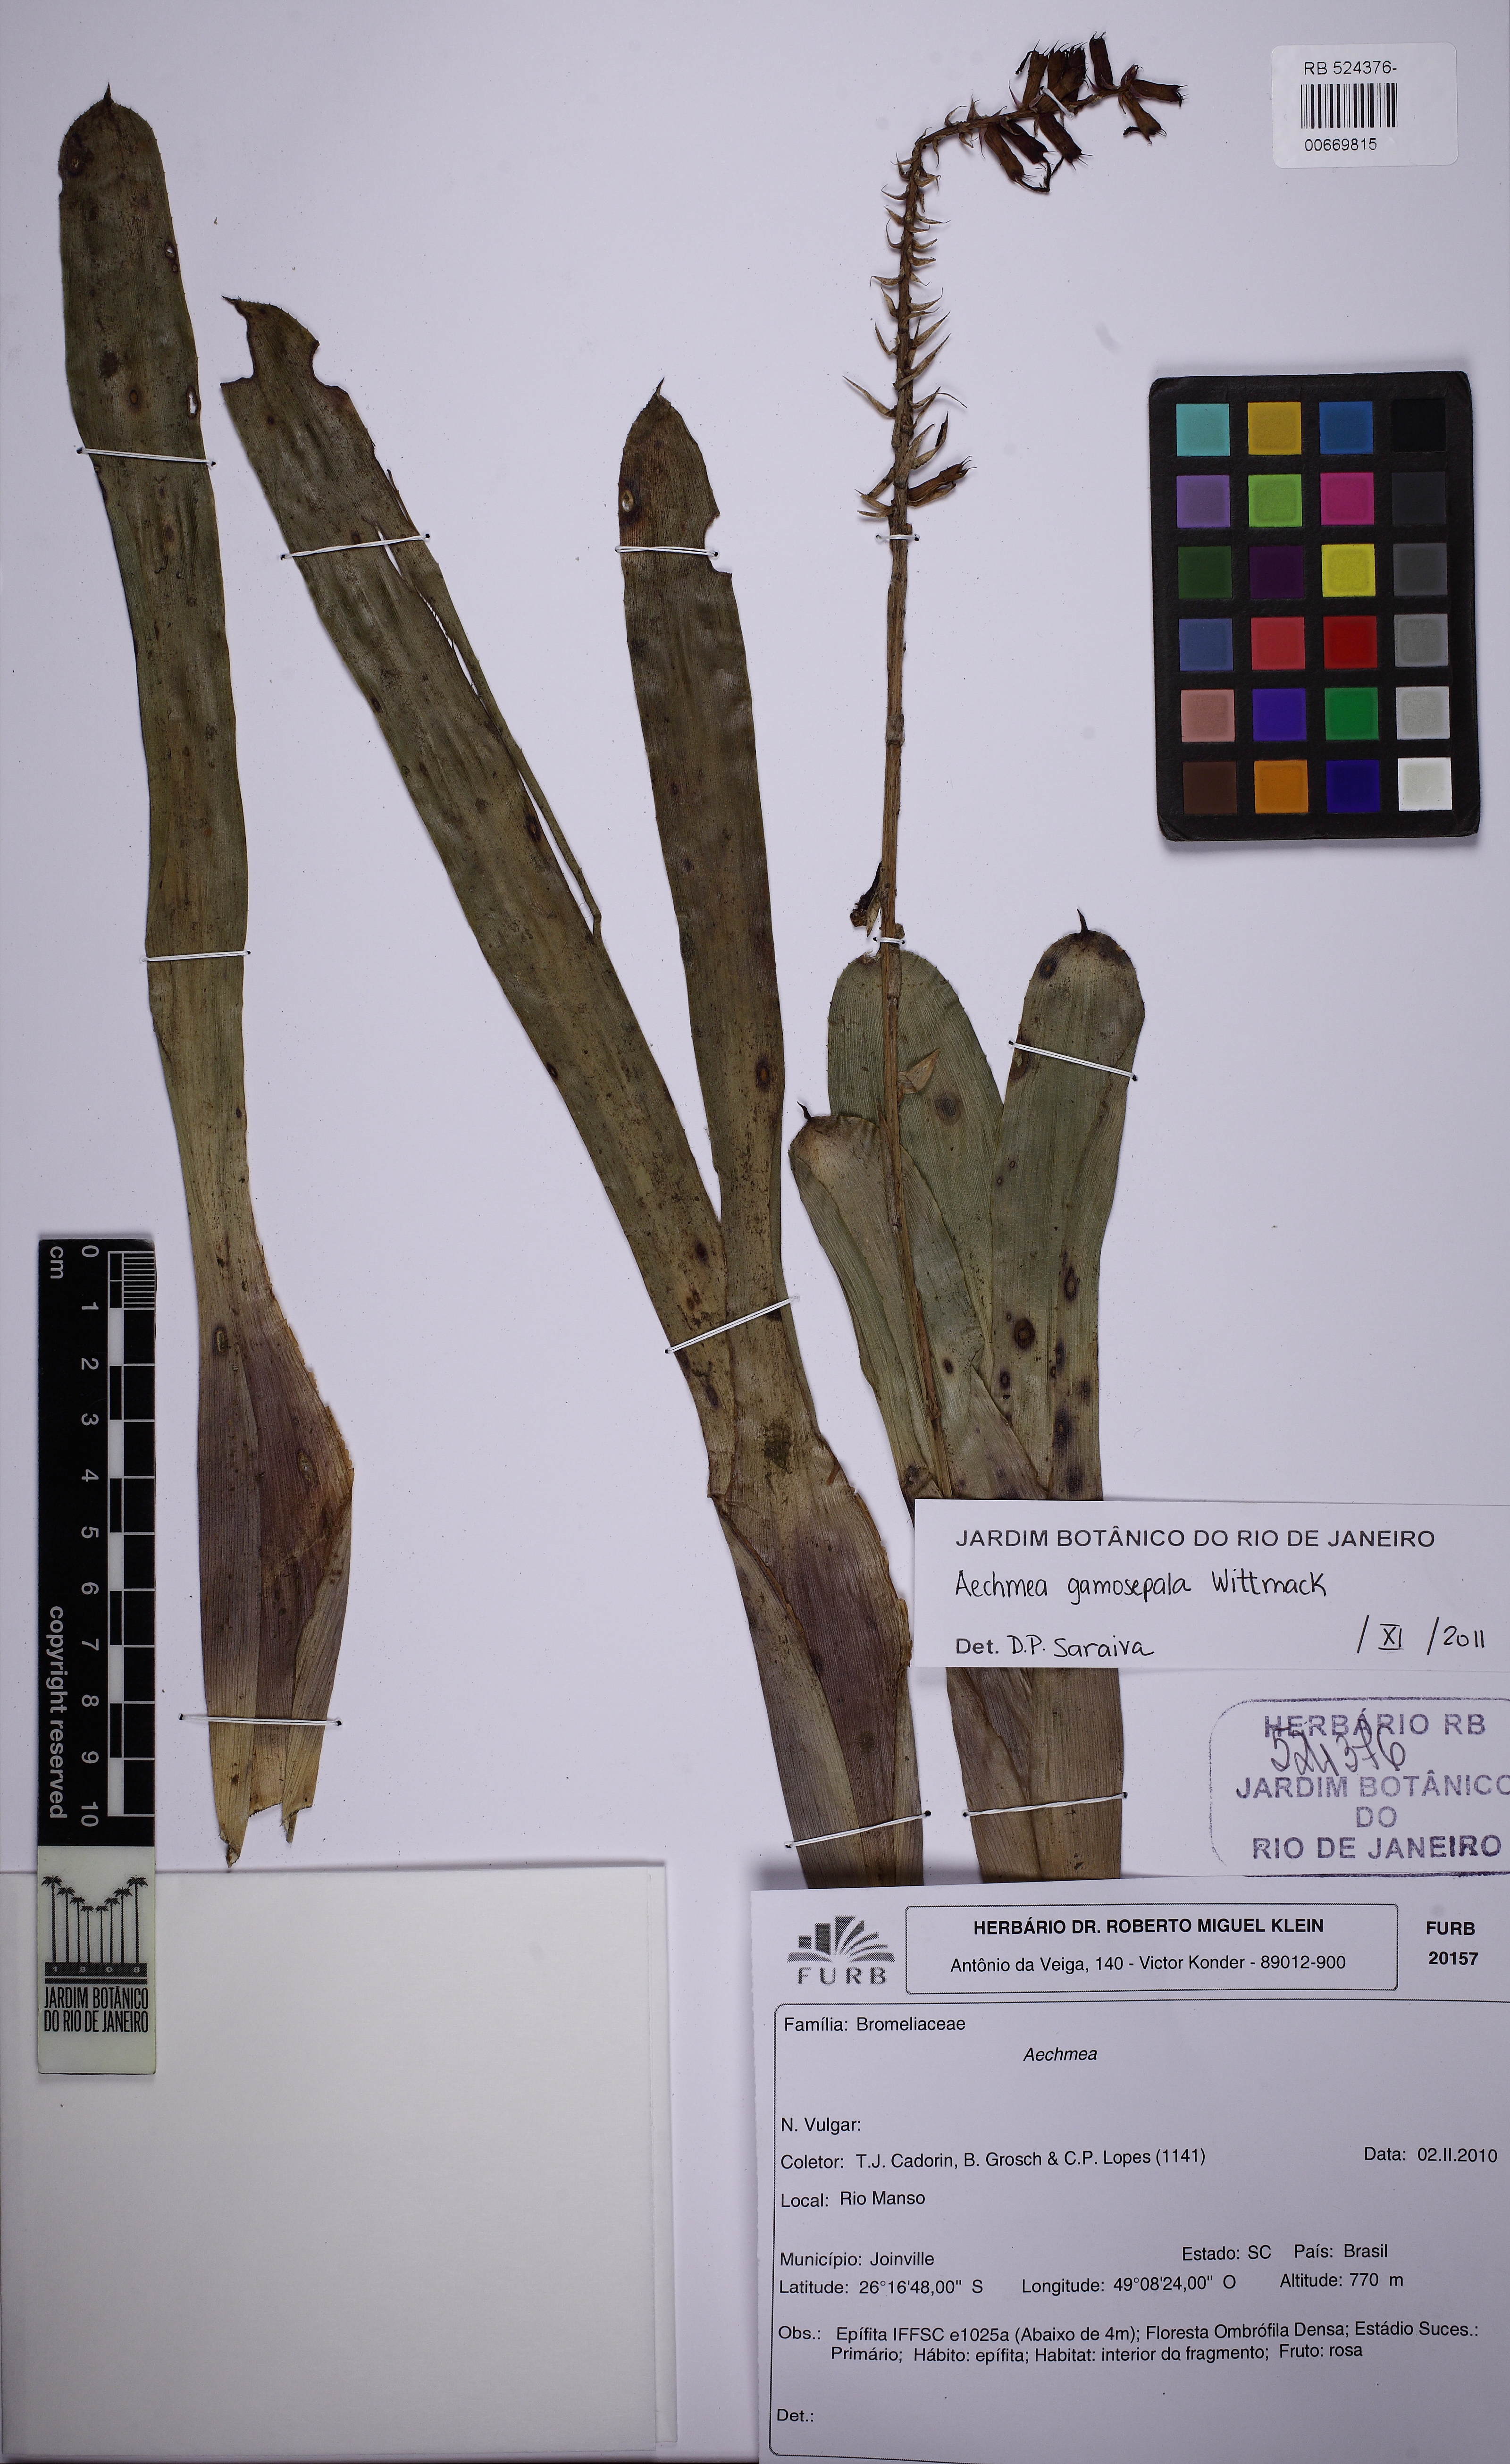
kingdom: Plantae
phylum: Tracheophyta
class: Liliopsida
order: Poales
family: Bromeliaceae
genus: Aechmea
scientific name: Aechmea gamosepala
